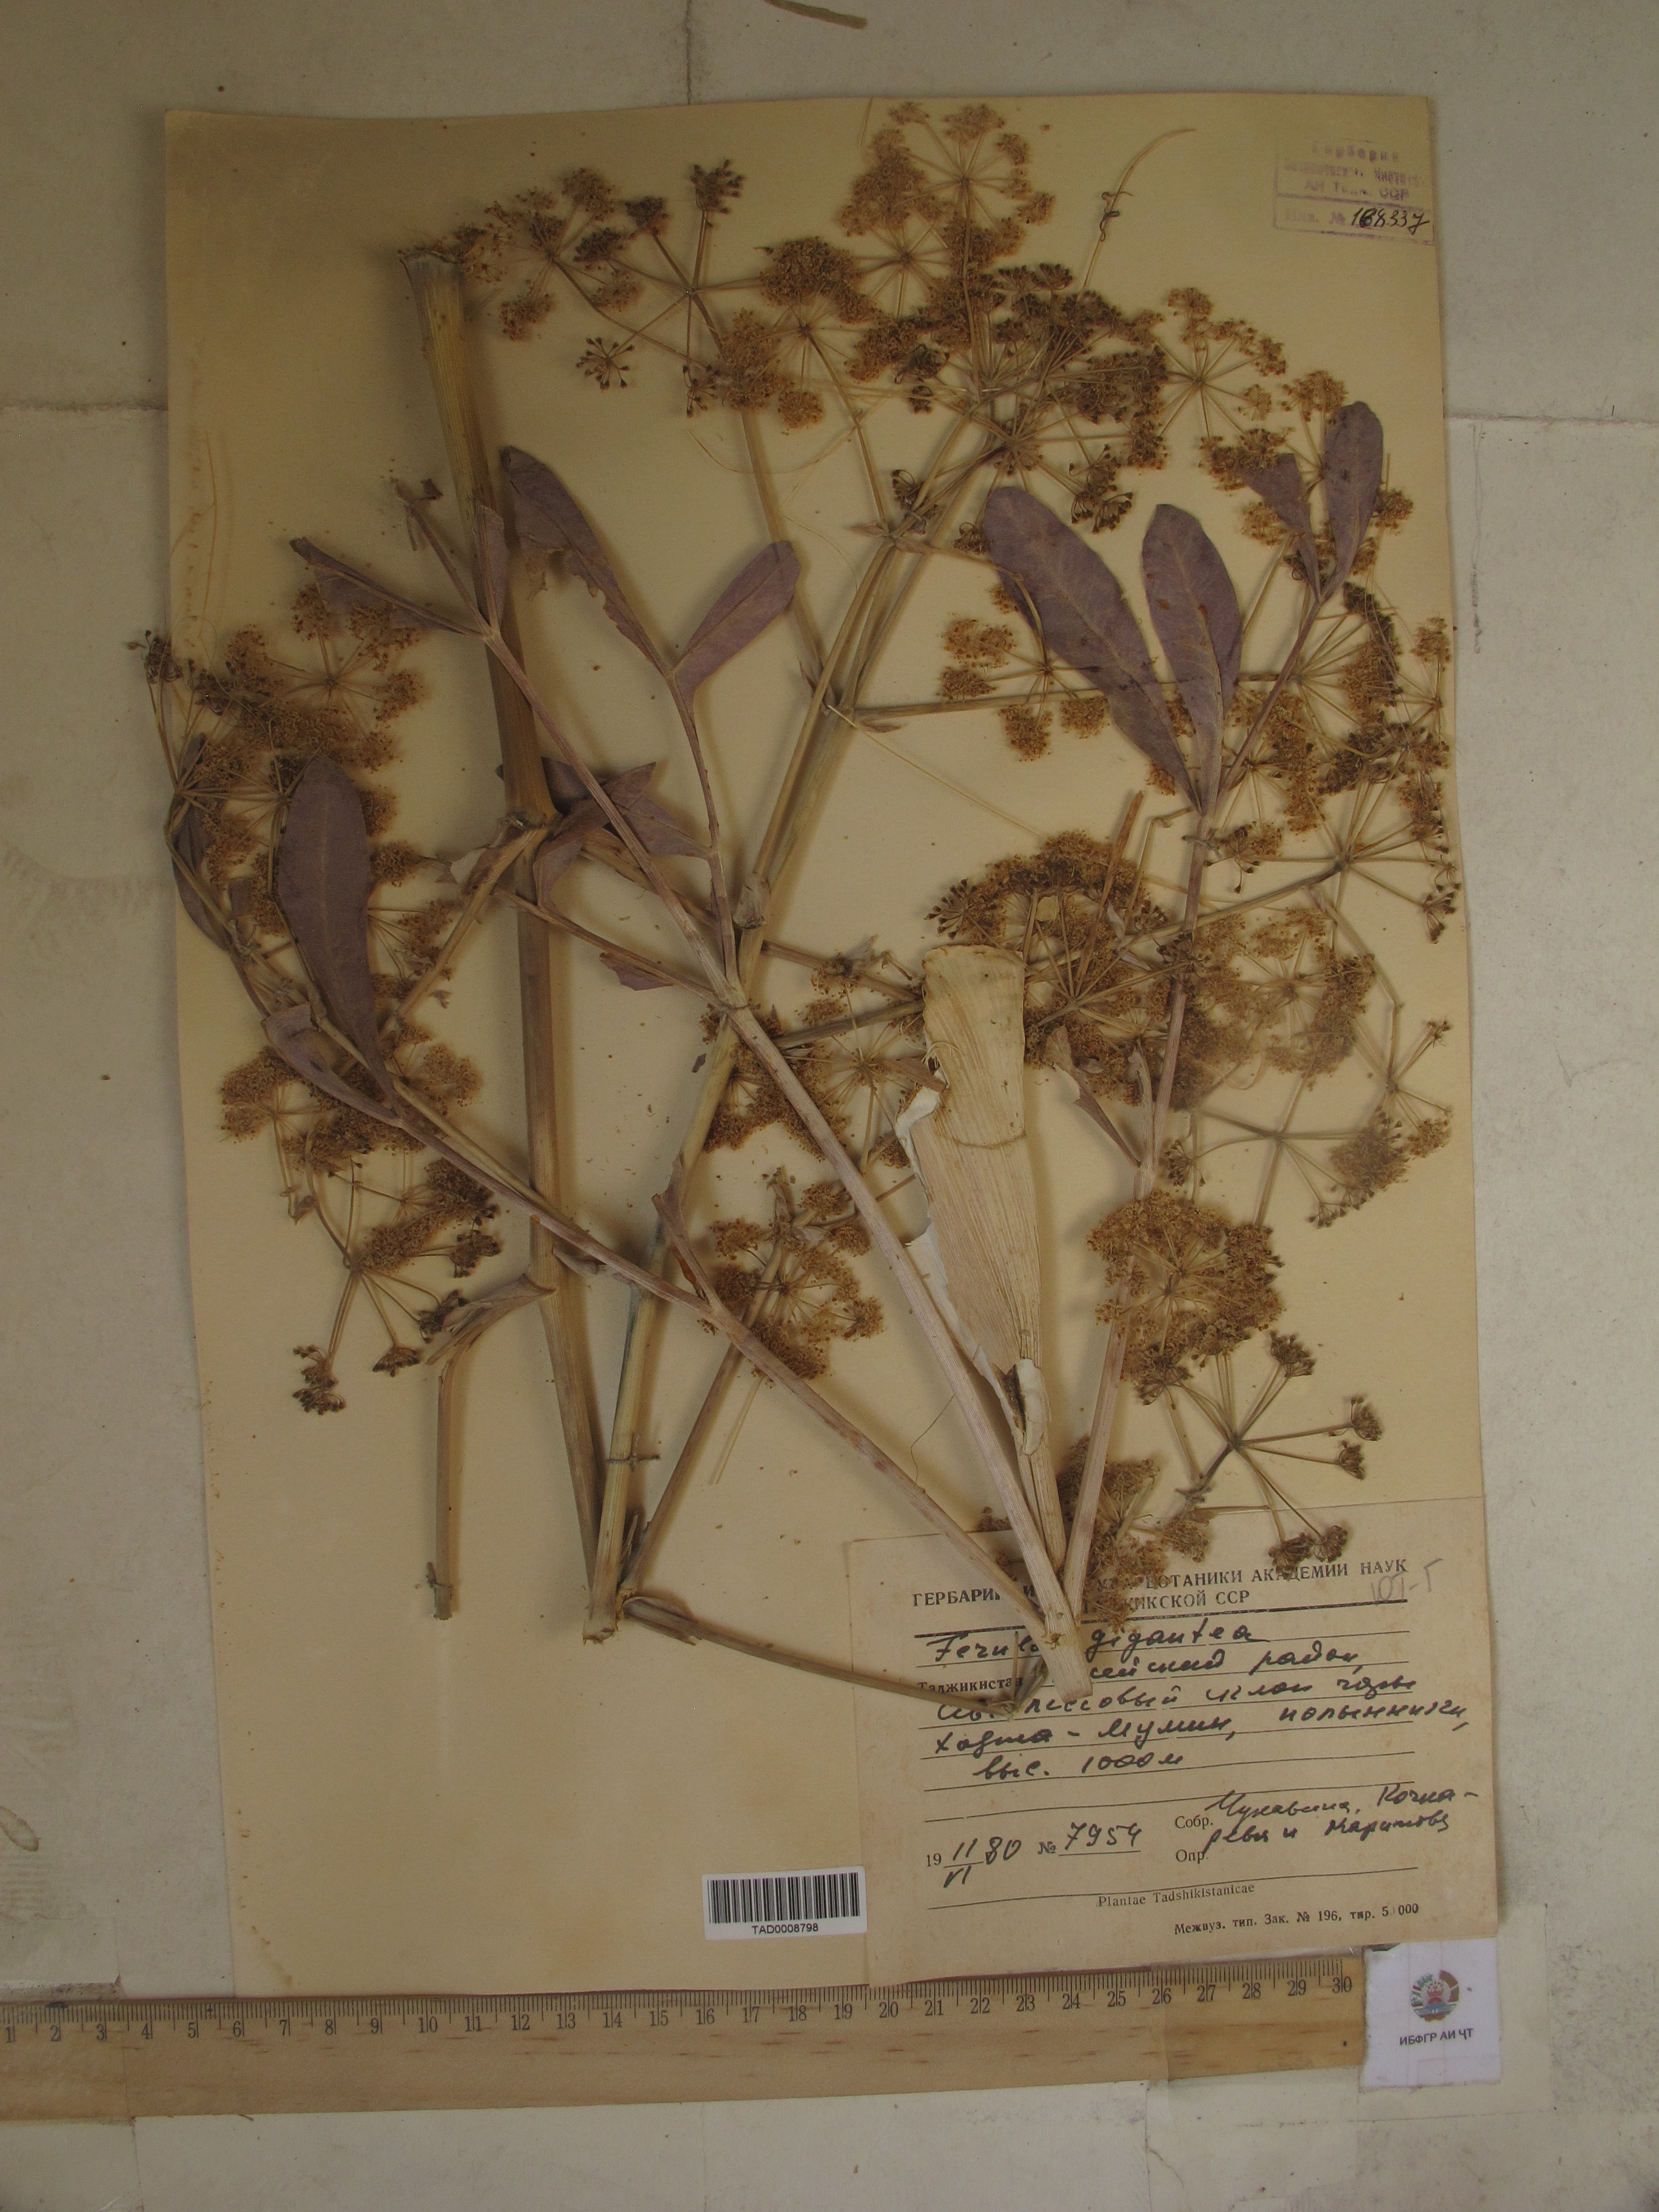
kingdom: Plantae
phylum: Tracheophyta
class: Magnoliopsida
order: Apiales
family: Apiaceae
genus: Ferula
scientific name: Ferula gigantea
